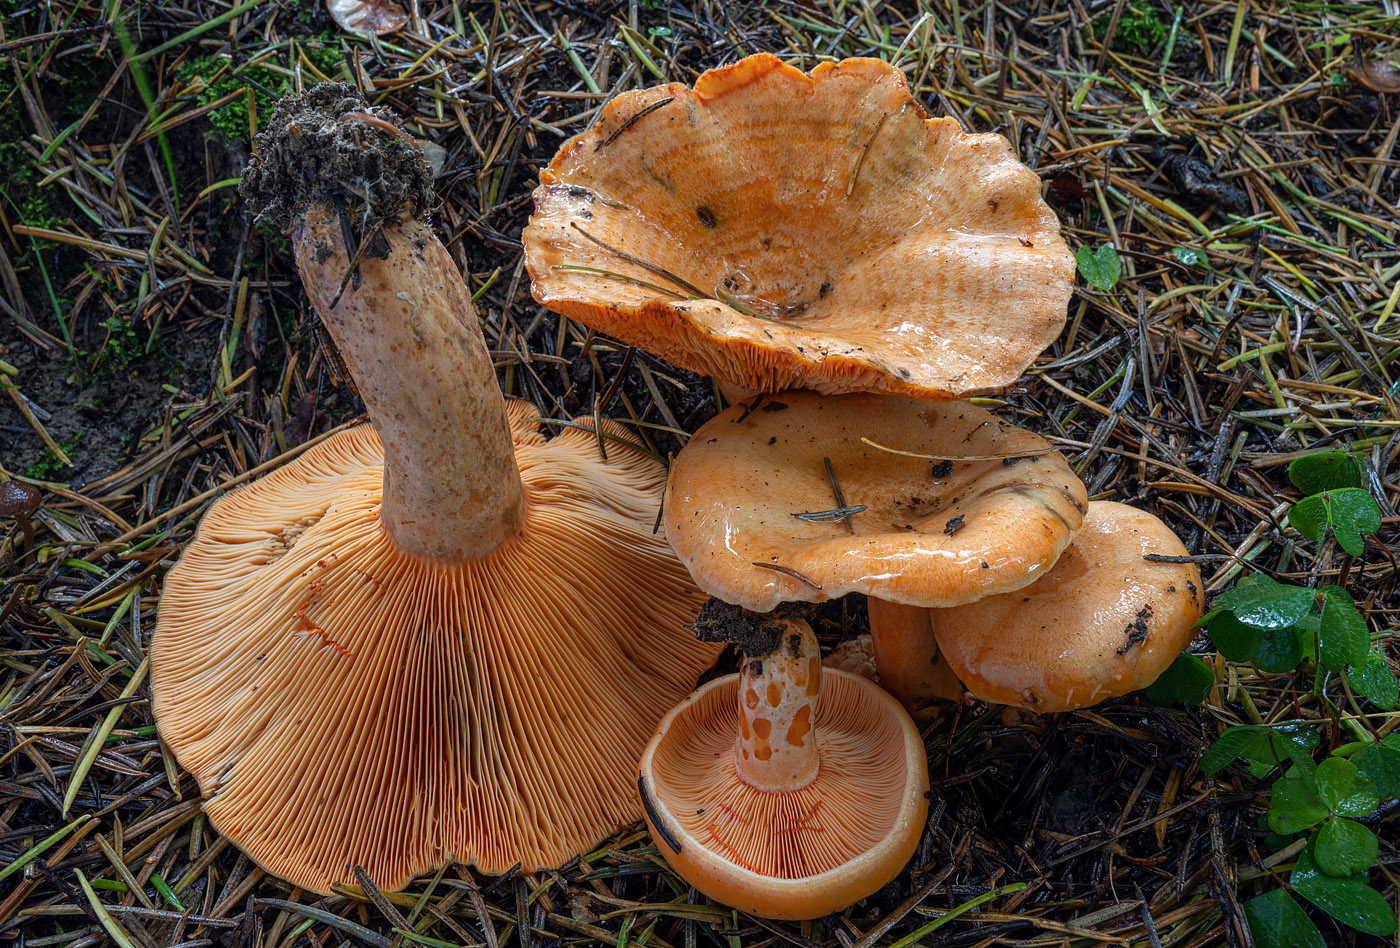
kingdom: Fungi
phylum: Basidiomycota
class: Agaricomycetes
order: Russulales
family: Russulaceae
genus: Lactarius
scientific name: Lactarius salmonicolor
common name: laksefarvet mælkehat
